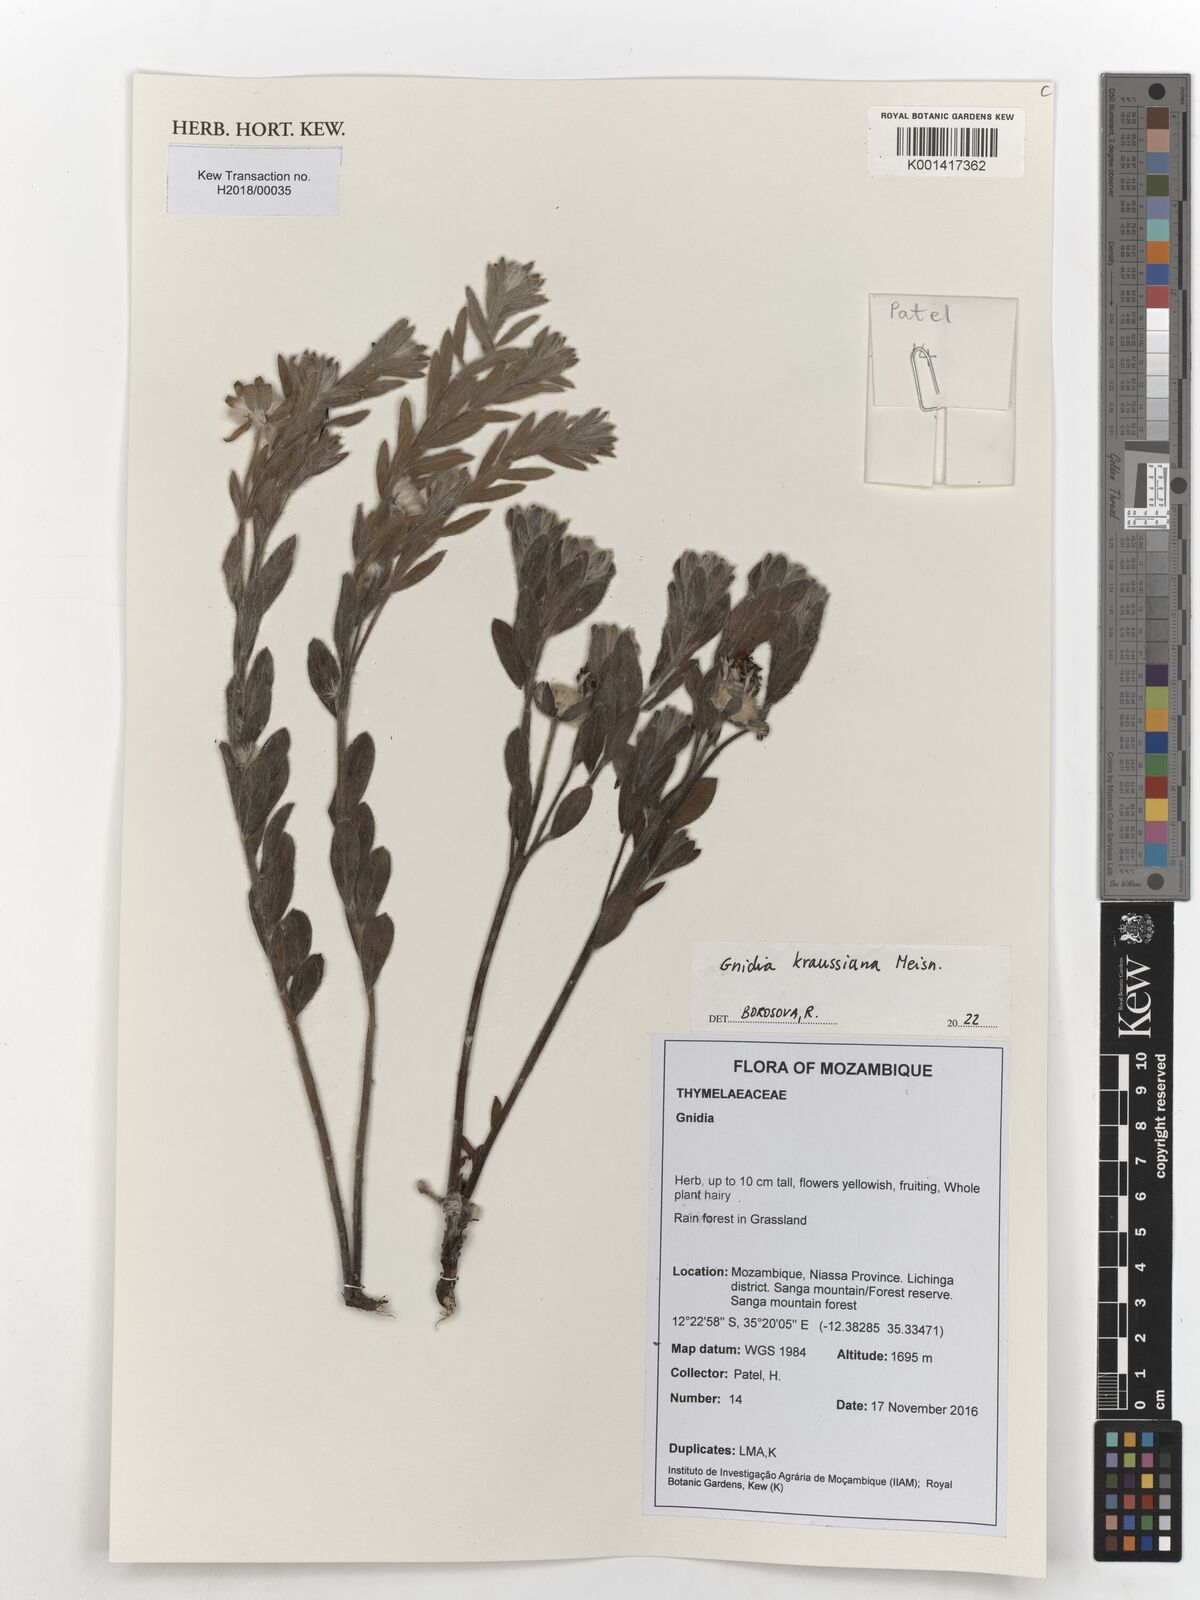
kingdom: Plantae
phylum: Tracheophyta
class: Magnoliopsida
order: Malvales
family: Thymelaeaceae
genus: Gnidia
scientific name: Gnidia kraussiana
